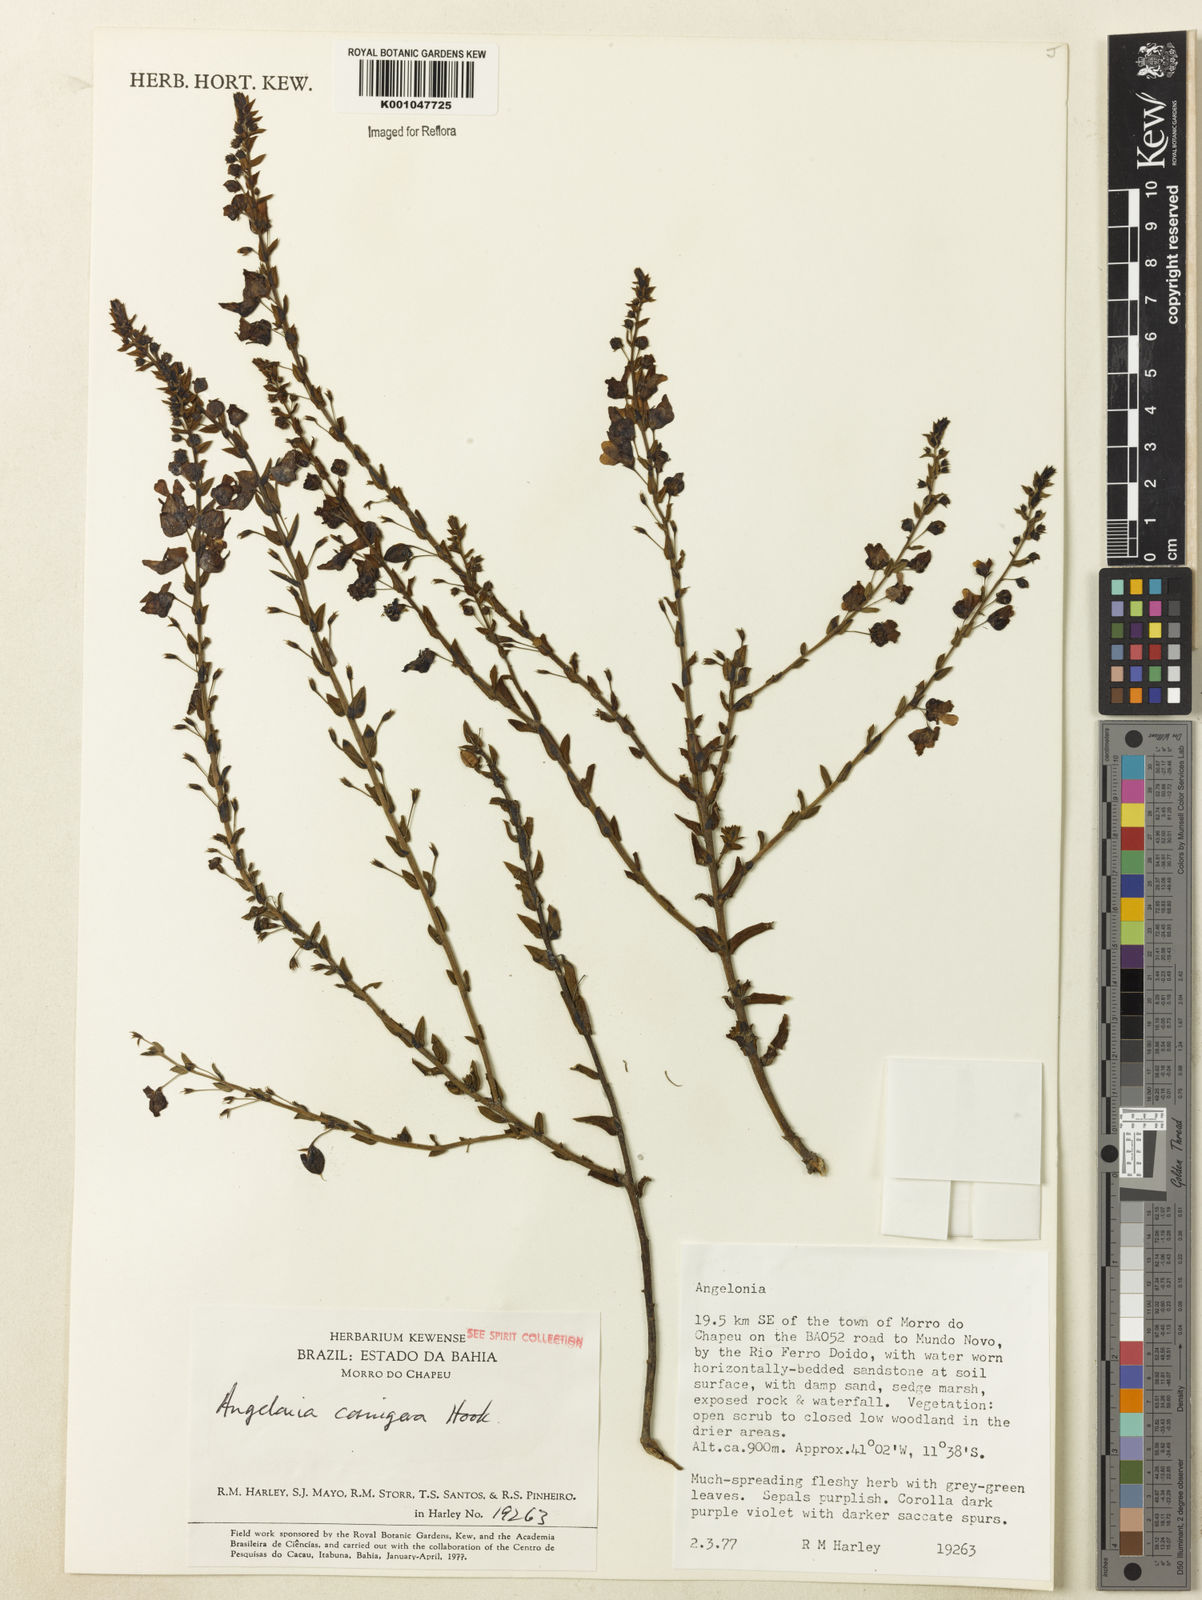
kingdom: Plantae
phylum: Tracheophyta
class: Magnoliopsida
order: Lamiales
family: Plantaginaceae
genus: Angelonia
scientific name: Angelonia cornigera
